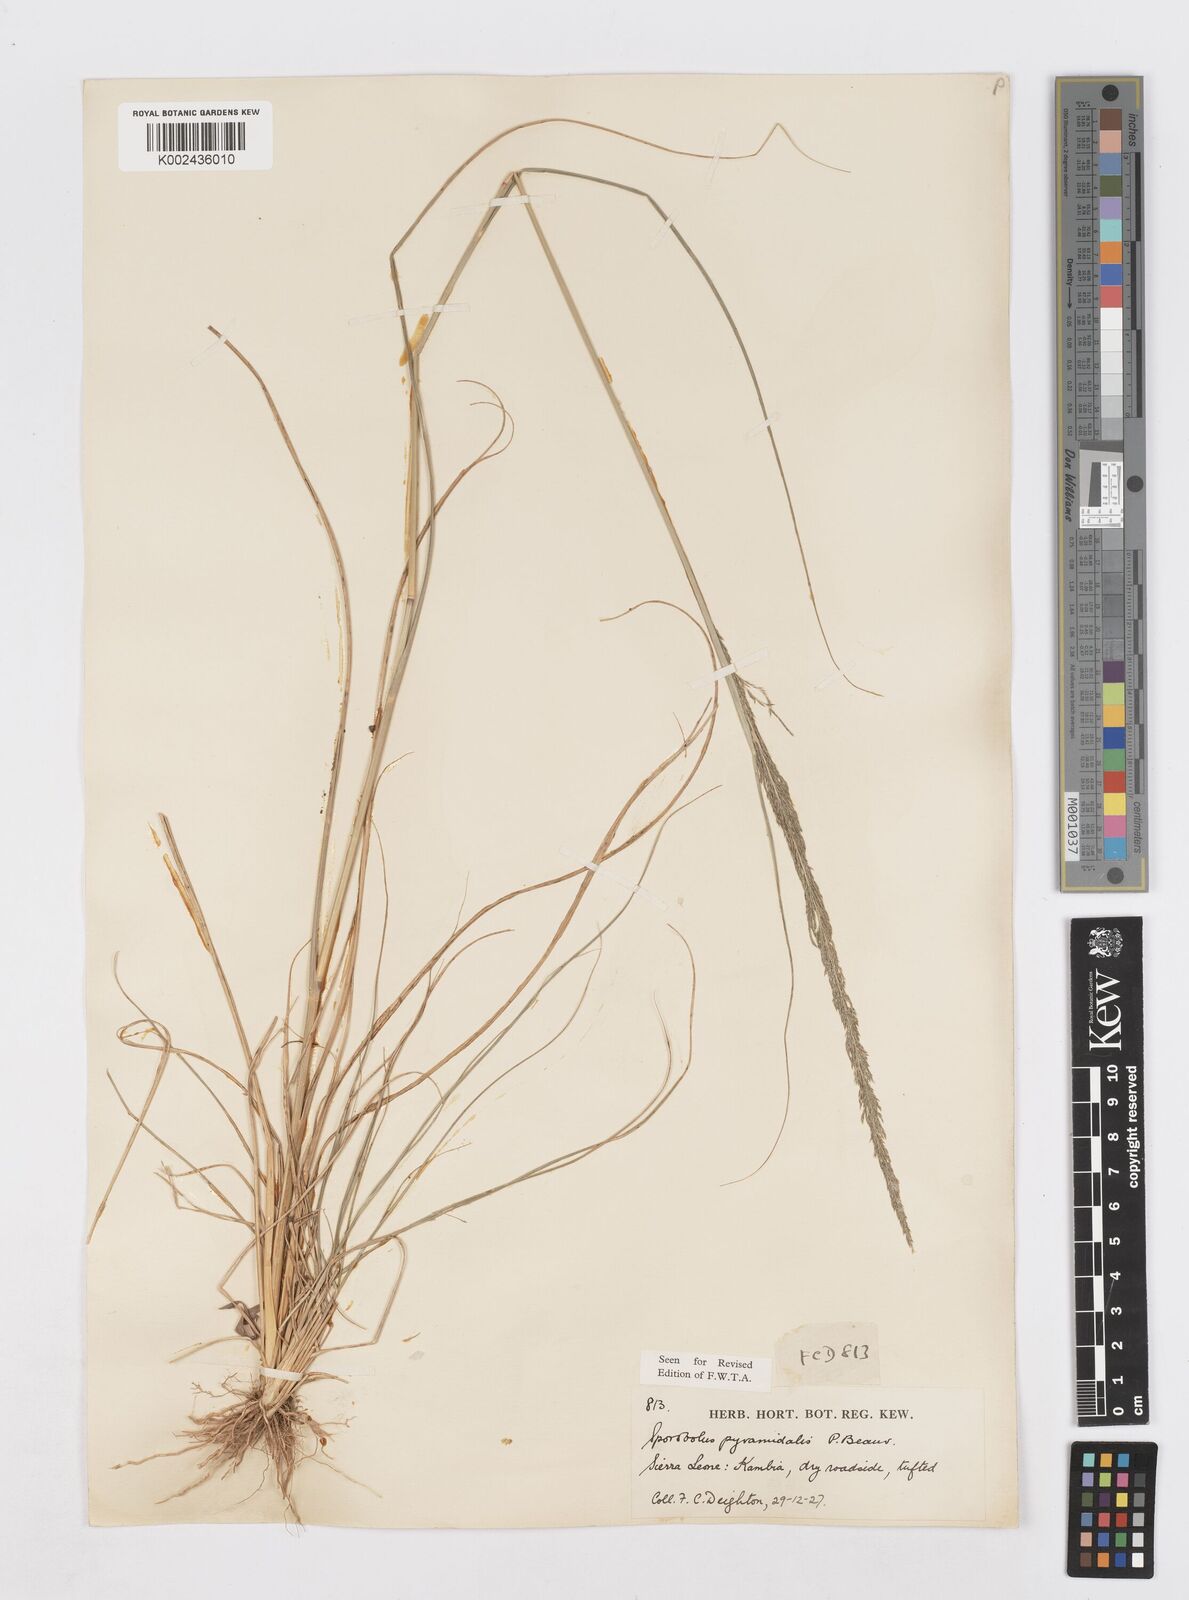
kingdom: Plantae
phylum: Tracheophyta
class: Liliopsida
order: Poales
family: Poaceae
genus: Sporobolus
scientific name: Sporobolus pyramidalis
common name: West indian dropseed
